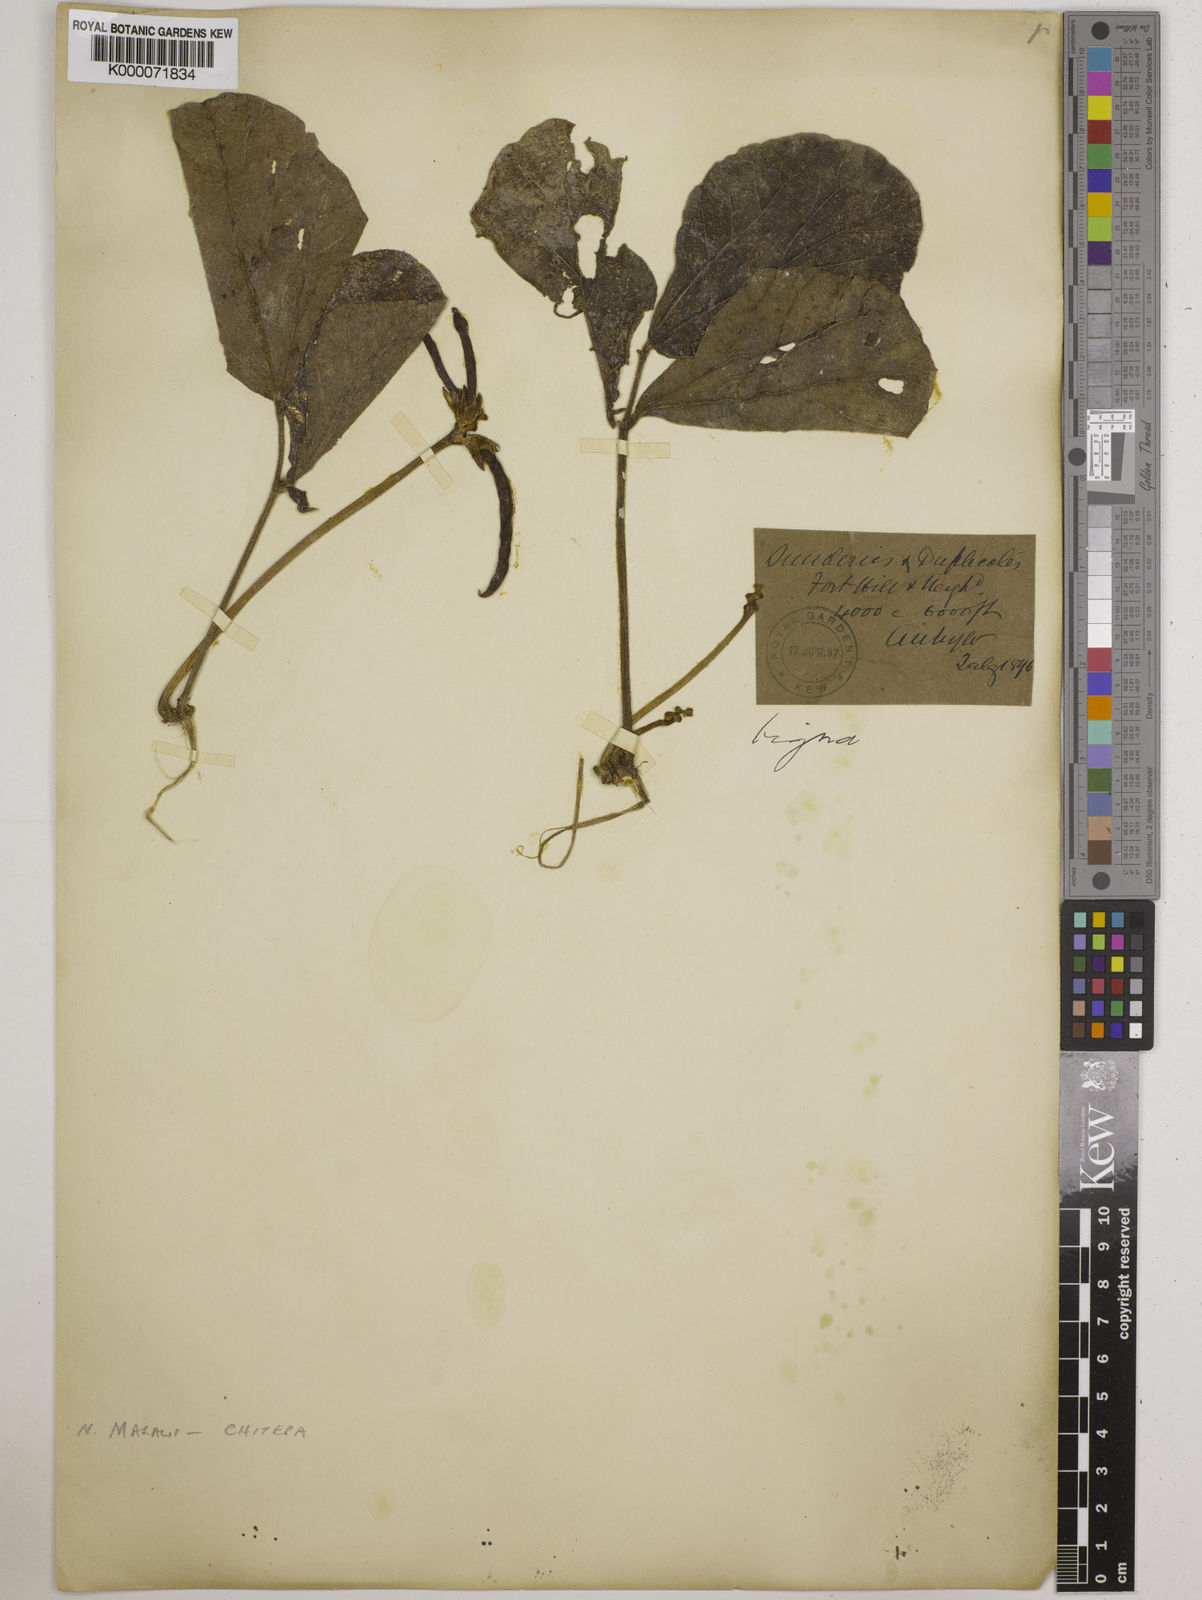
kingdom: Plantae
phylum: Tracheophyta
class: Magnoliopsida
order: Fabales
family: Fabaceae
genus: Vigna
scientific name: Vigna platyloba
